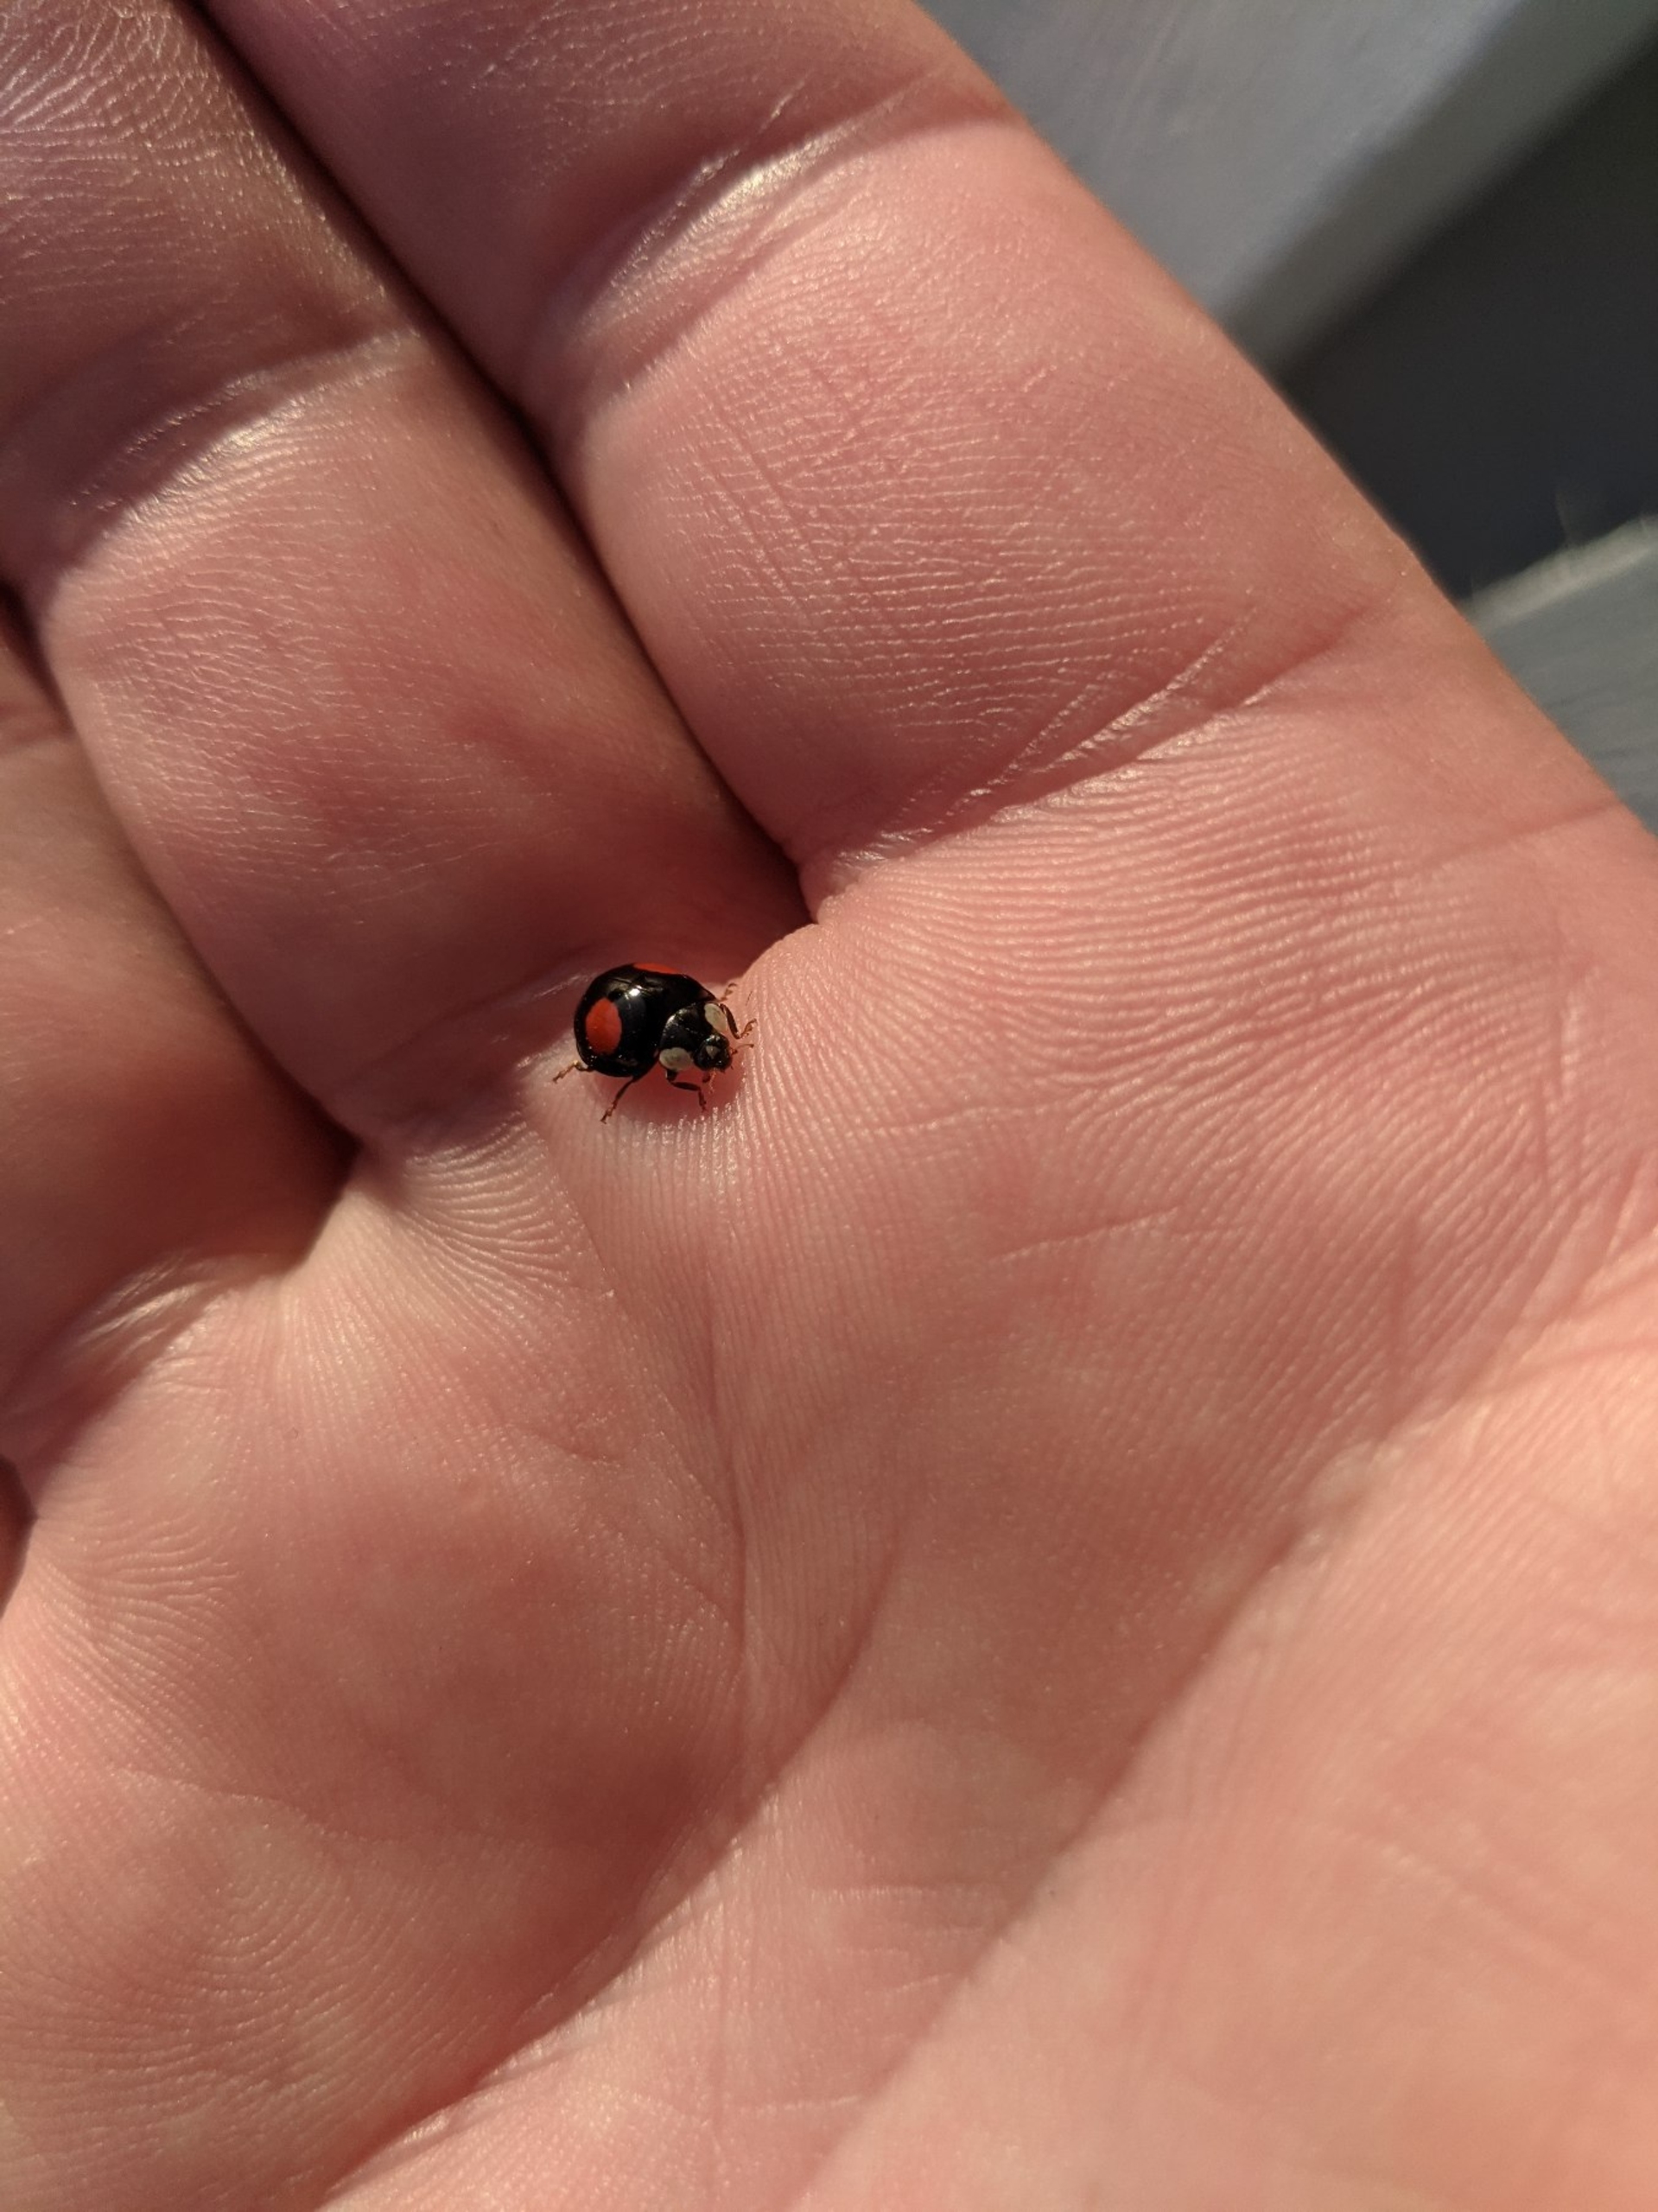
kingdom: Animalia
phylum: Arthropoda
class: Insecta
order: Coleoptera
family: Coccinellidae
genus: Harmonia
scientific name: Harmonia axyridis
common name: Harlekinmariehøne
